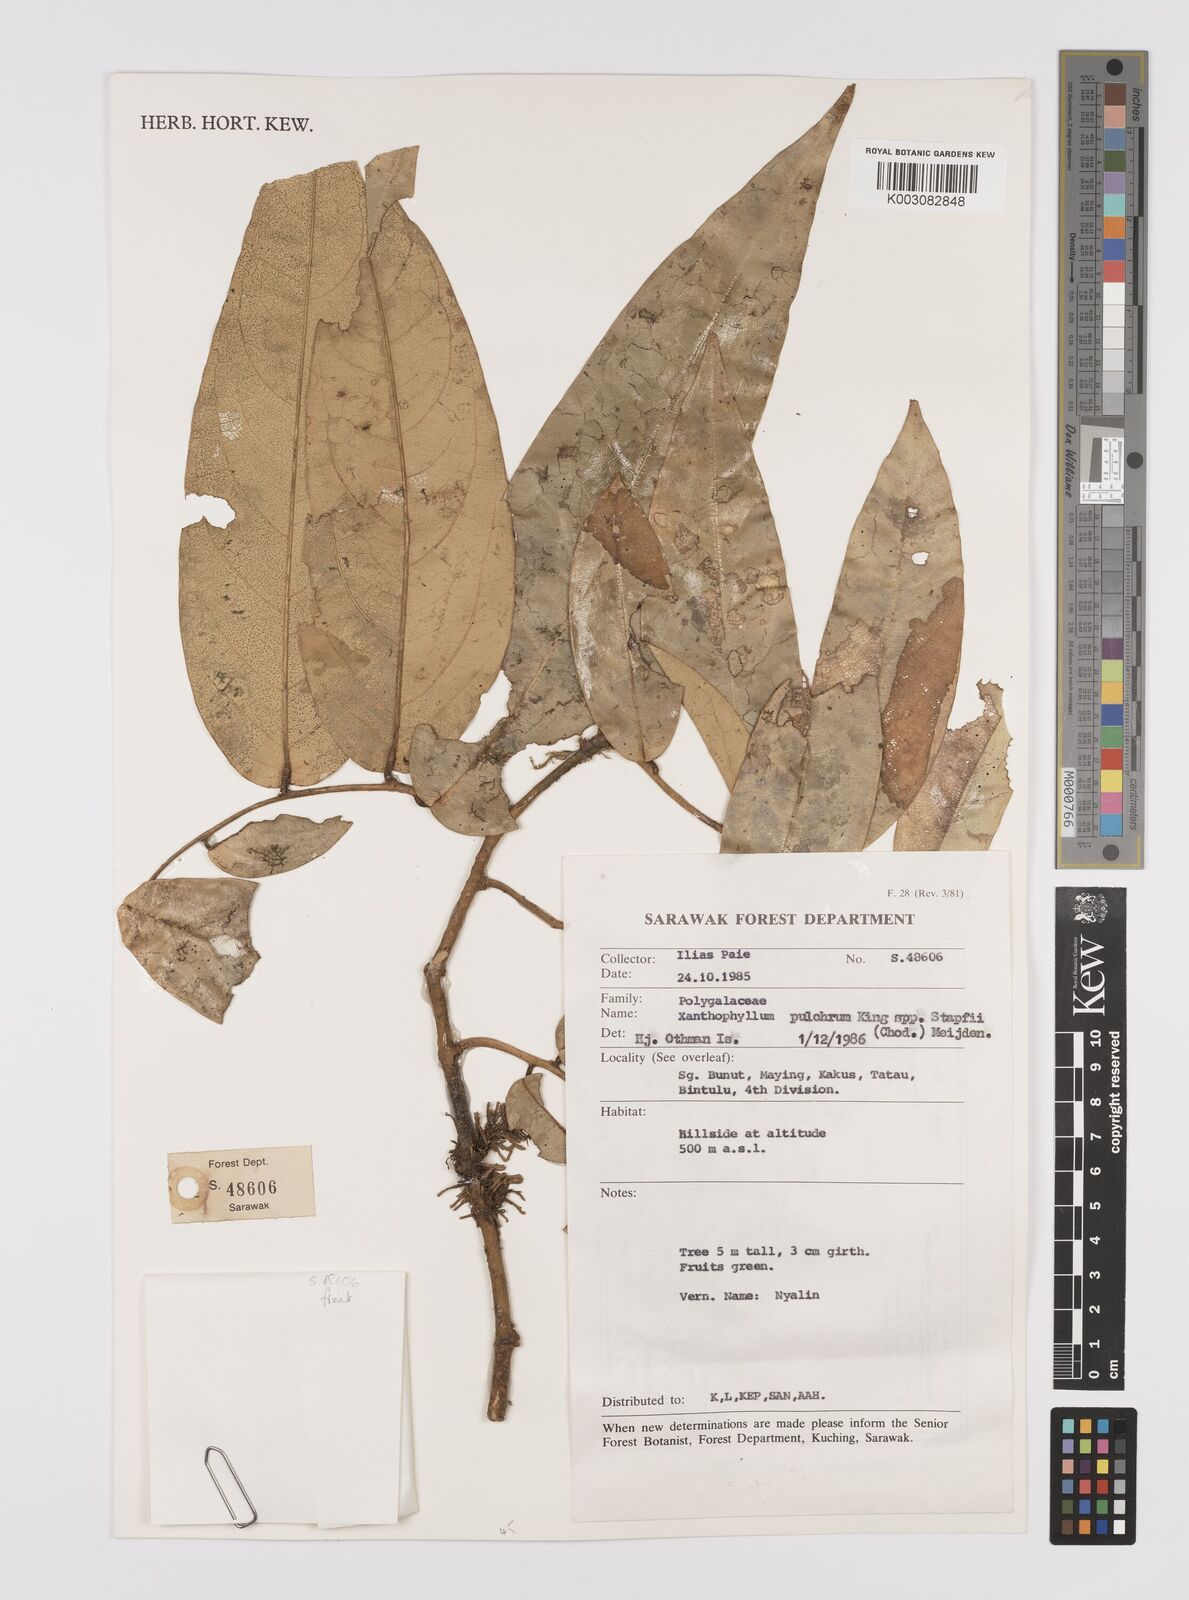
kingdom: Plantae
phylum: Tracheophyta
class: Magnoliopsida
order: Fabales
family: Polygalaceae
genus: Xanthophyllum
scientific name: Xanthophyllum pulchrum
